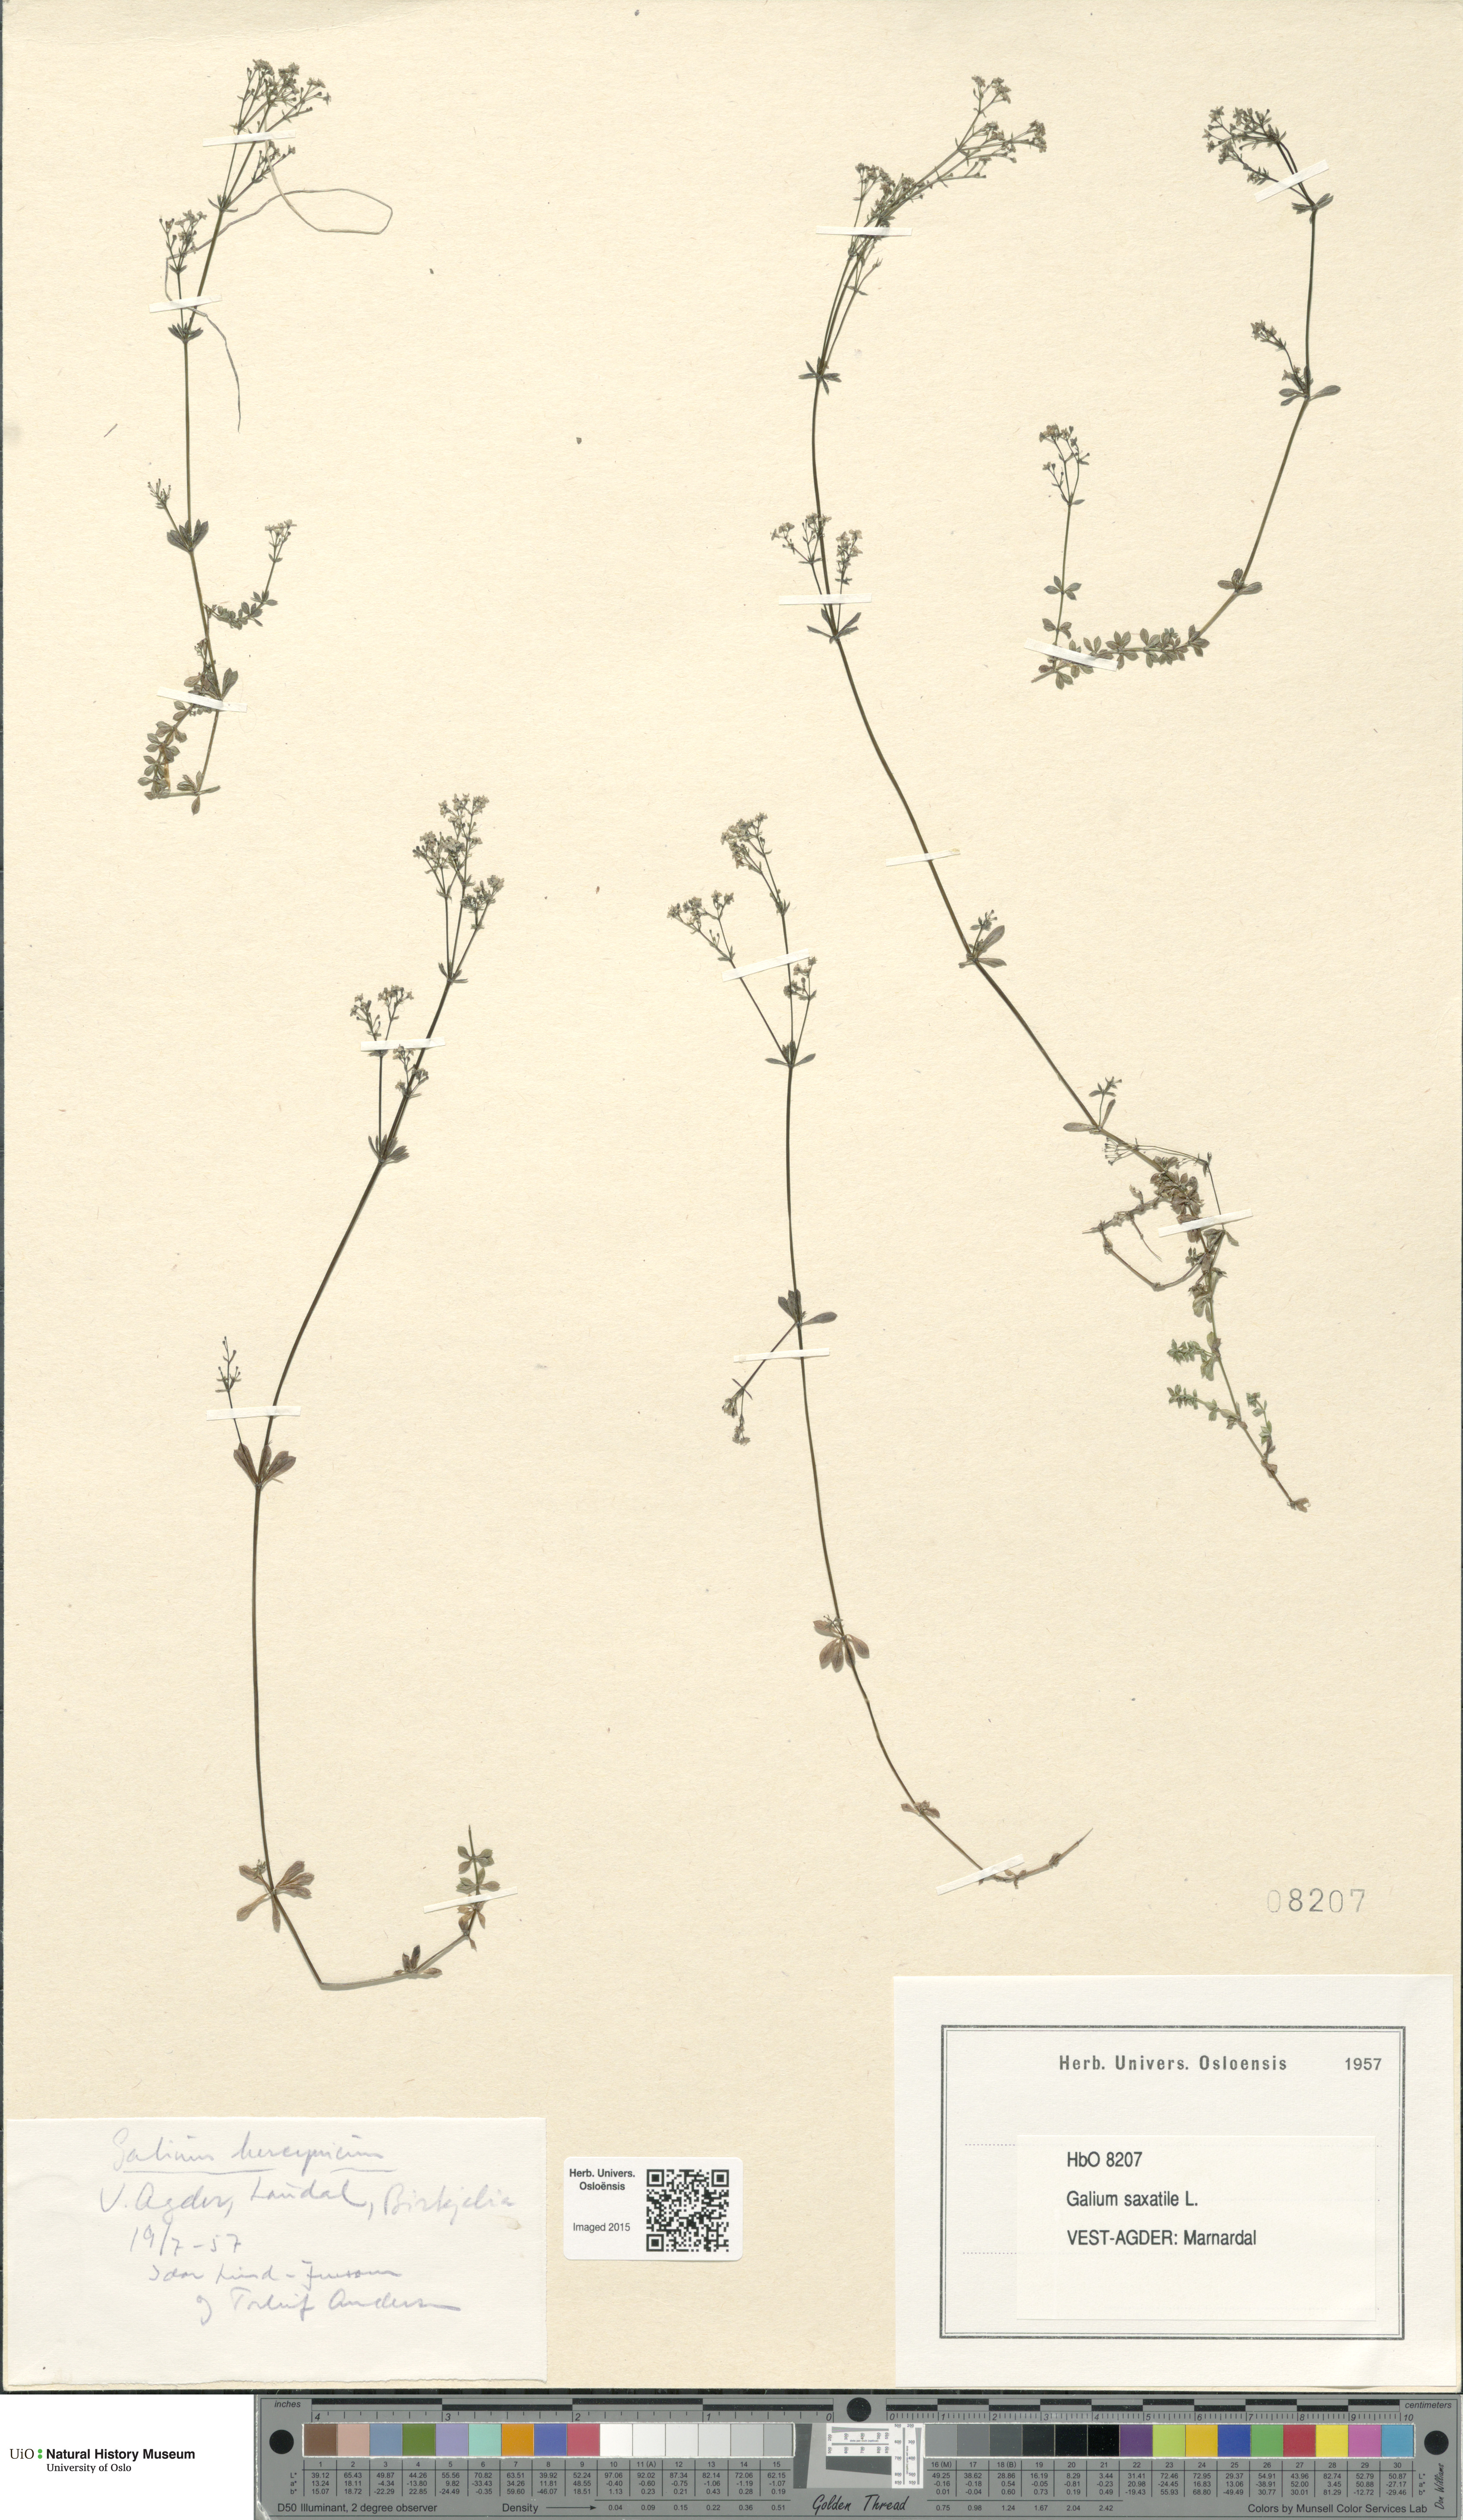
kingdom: Plantae
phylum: Tracheophyta
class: Magnoliopsida
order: Gentianales
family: Rubiaceae
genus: Galium
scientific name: Galium saxatile
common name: Heath bedstraw
